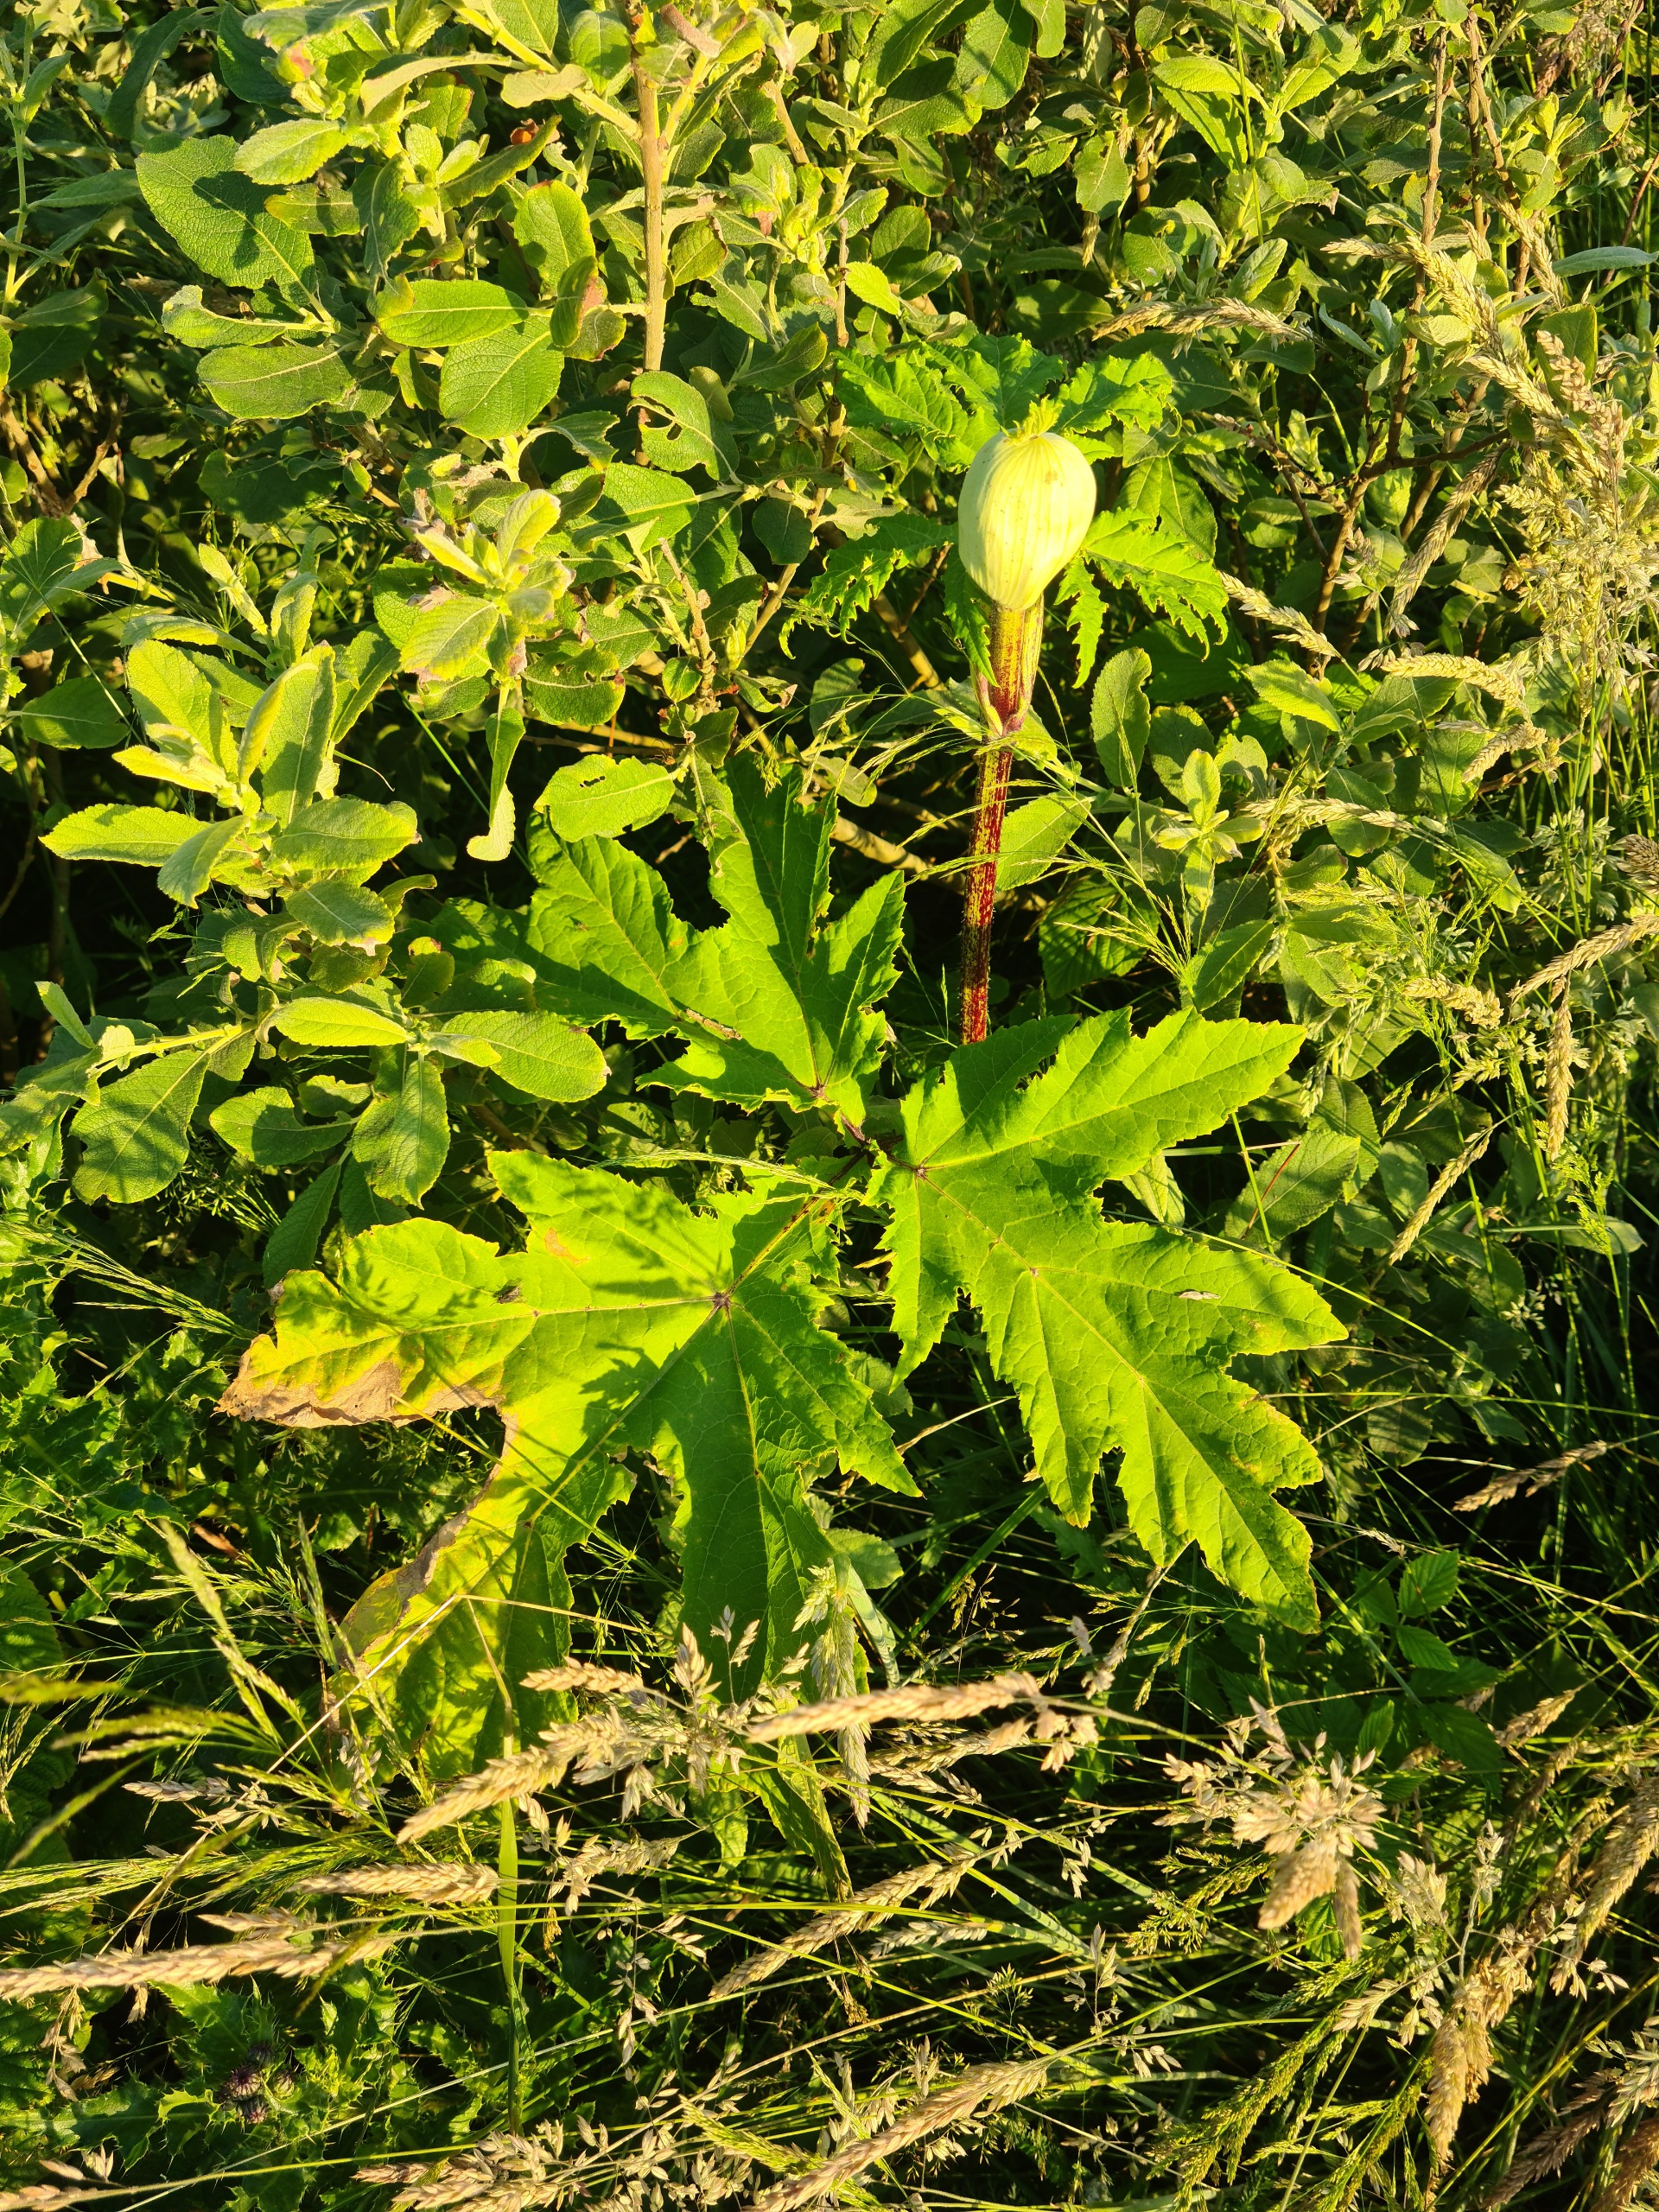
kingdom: Plantae
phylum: Tracheophyta
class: Magnoliopsida
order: Apiales
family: Apiaceae
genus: Heracleum
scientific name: Heracleum mantegazzianum
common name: Kæmpe-bjørneklo
